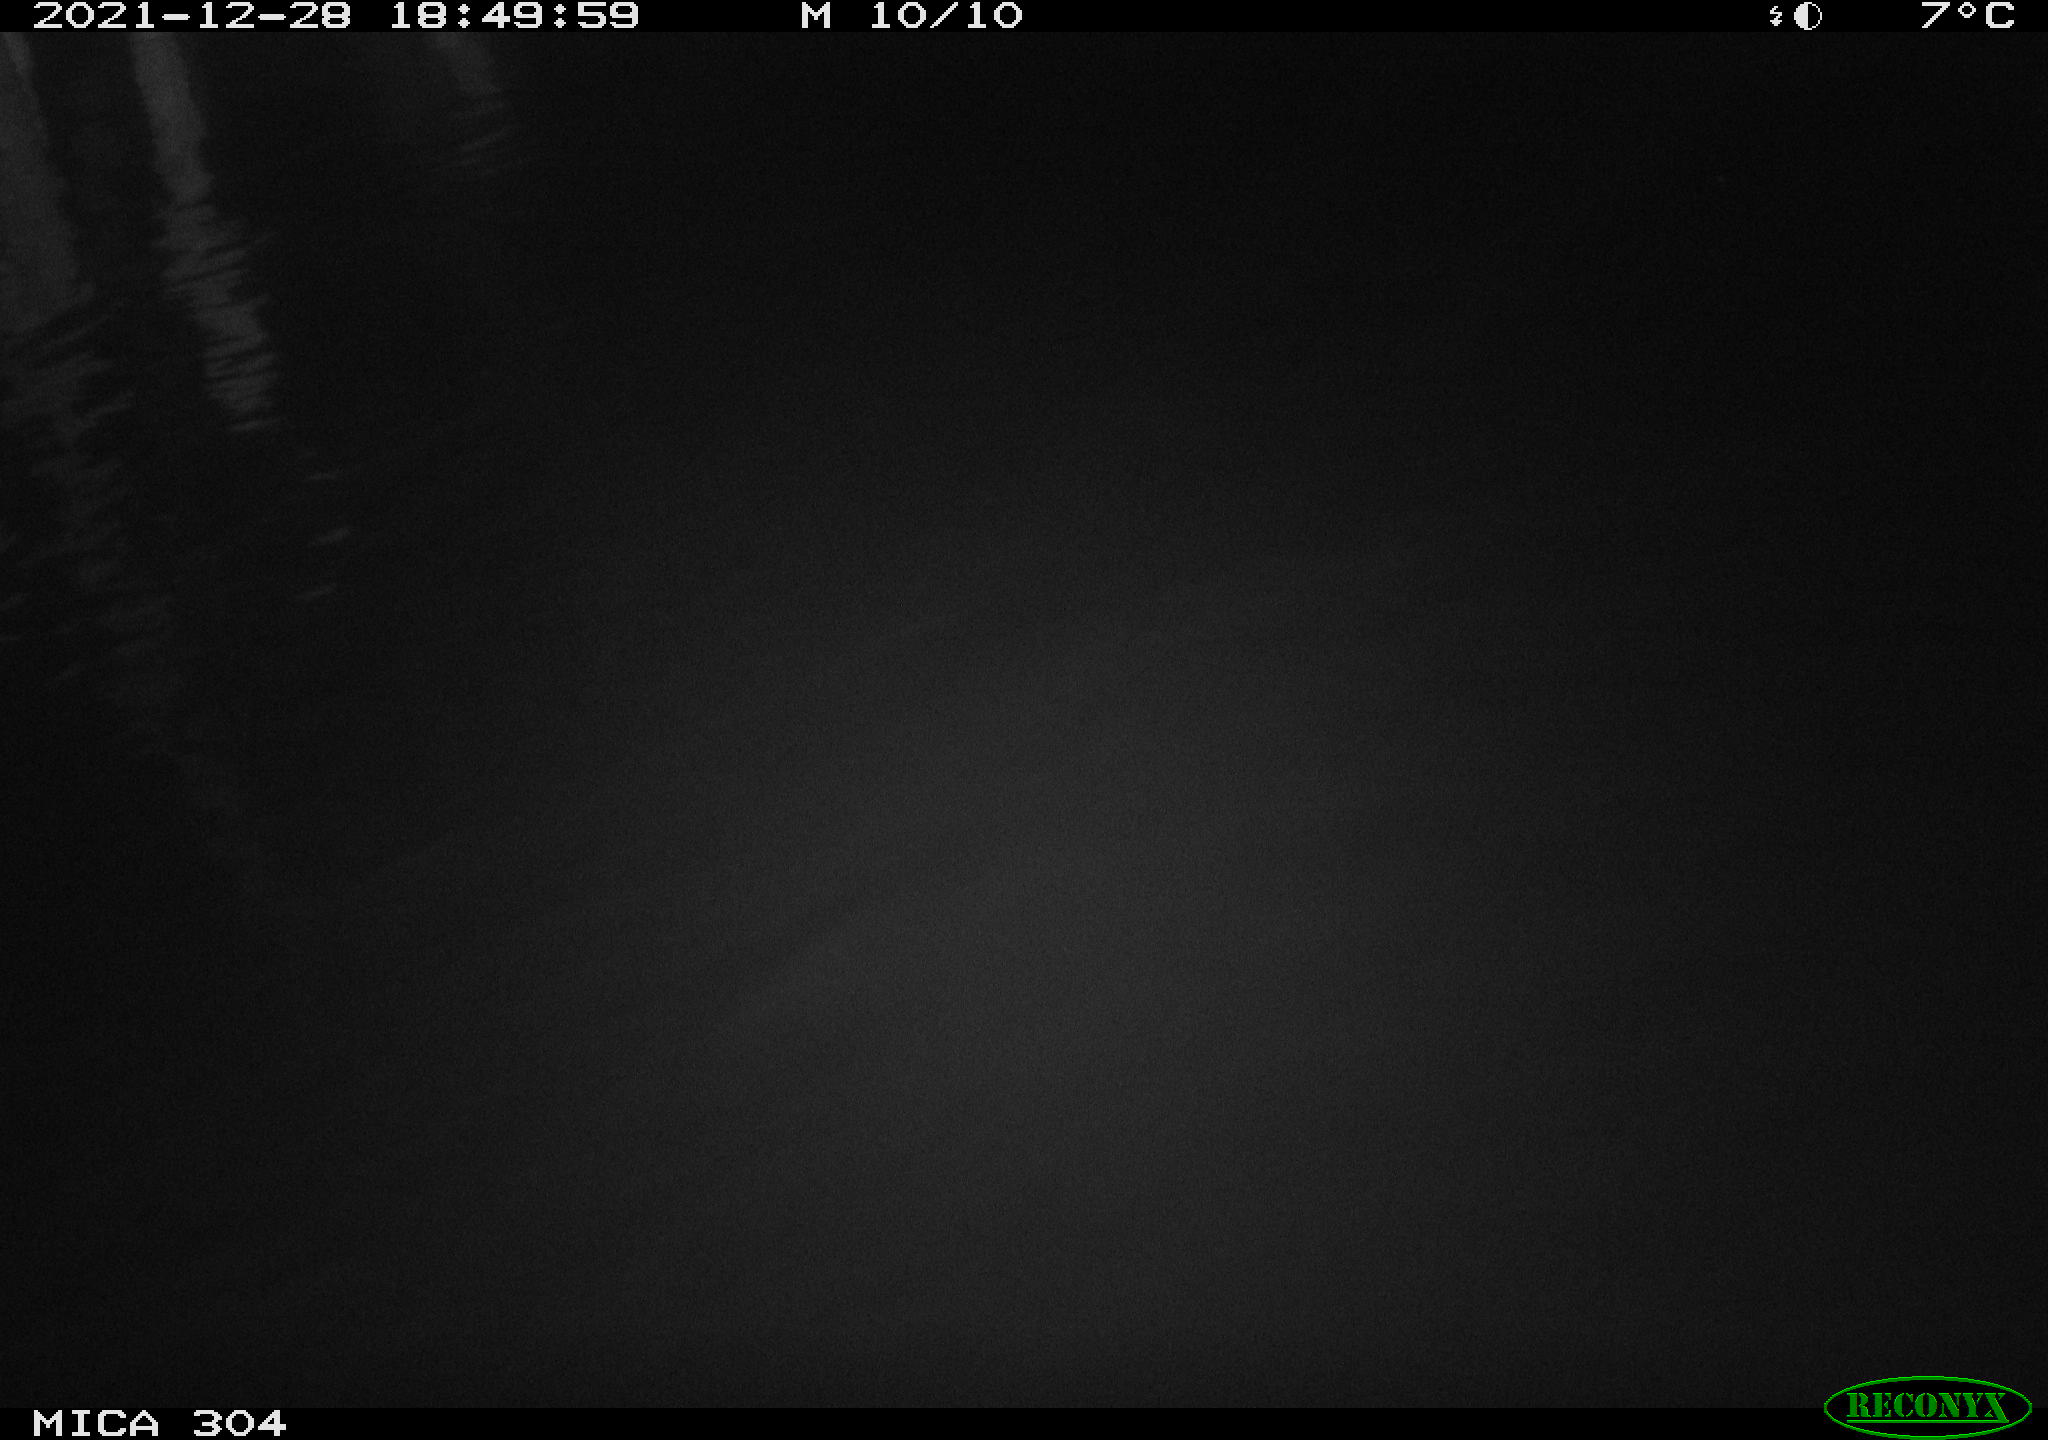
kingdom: Animalia
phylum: Chordata
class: Mammalia
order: Rodentia
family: Muridae
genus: Rattus
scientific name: Rattus norvegicus
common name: Brown rat
